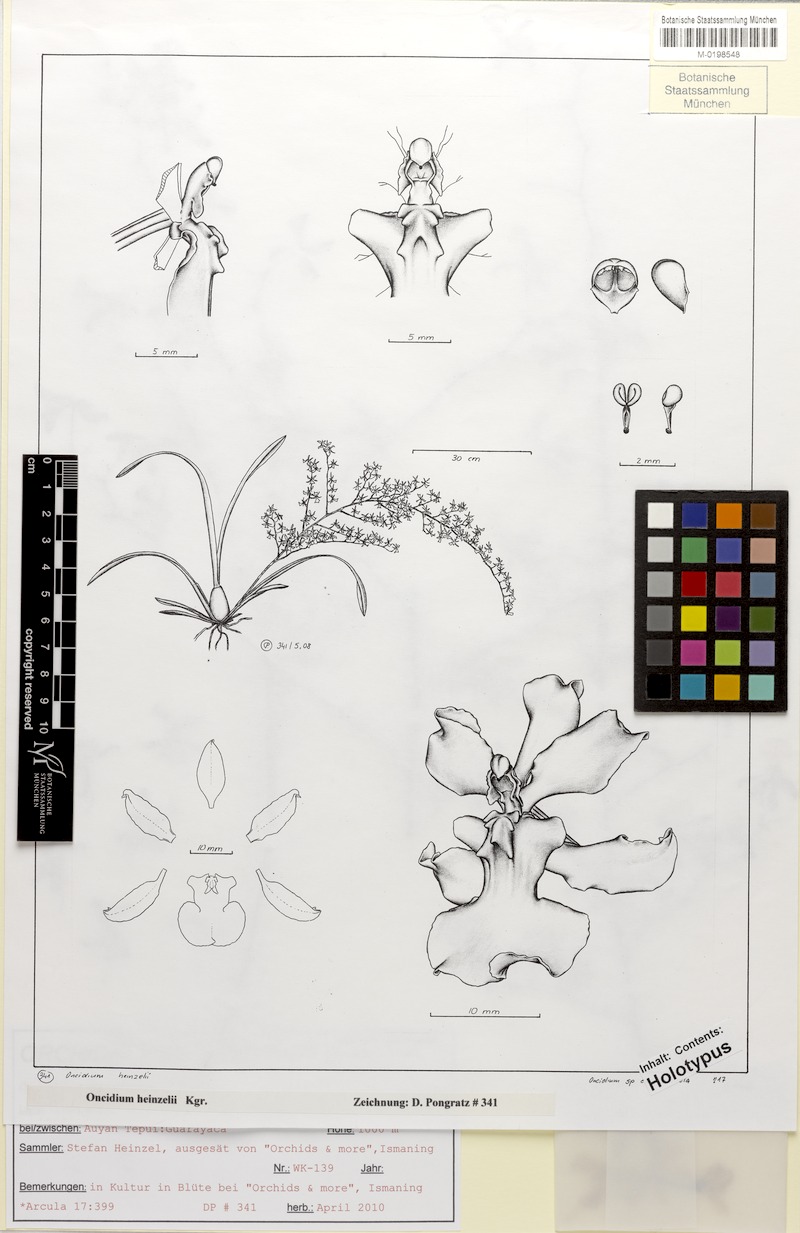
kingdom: Plantae
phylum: Tracheophyta
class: Liliopsida
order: Asparagales
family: Orchidaceae
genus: Oncidium
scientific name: Oncidium heinzelii
